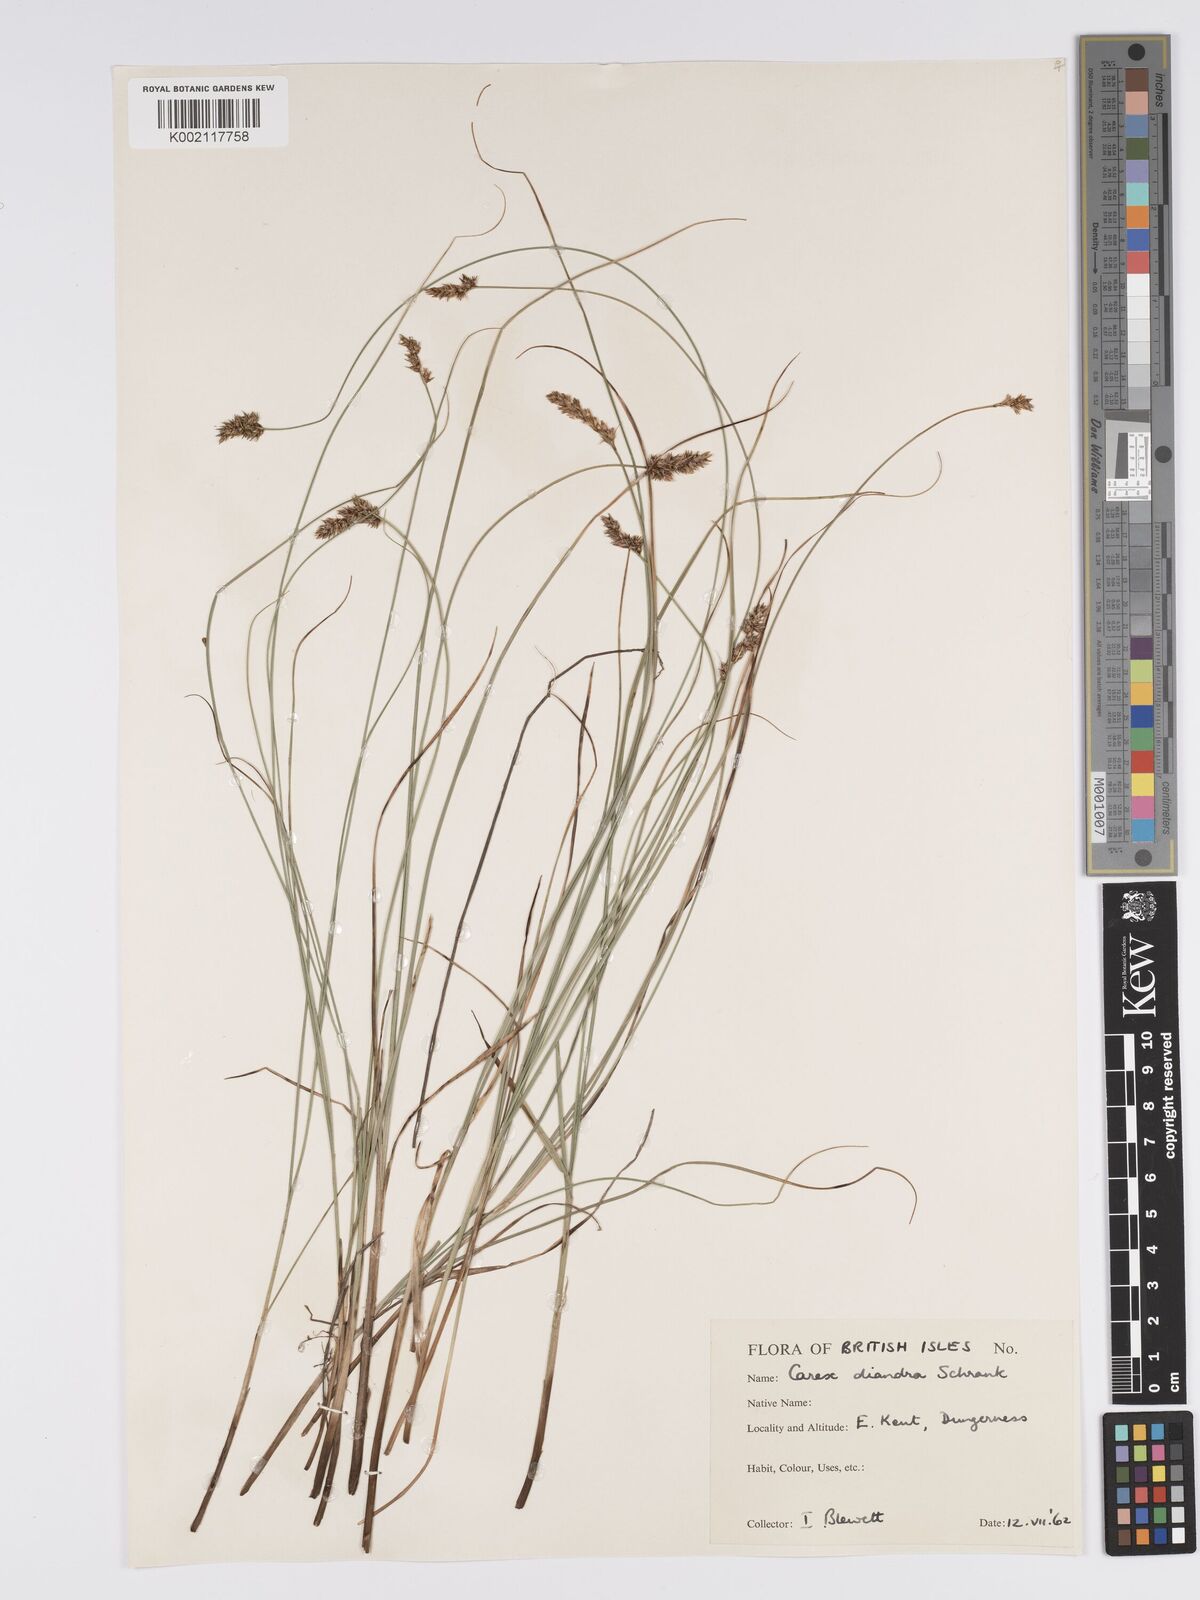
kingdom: Plantae
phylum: Tracheophyta
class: Liliopsida
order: Poales
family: Cyperaceae
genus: Carex
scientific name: Carex diandra
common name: Lesser tussock-sedge
